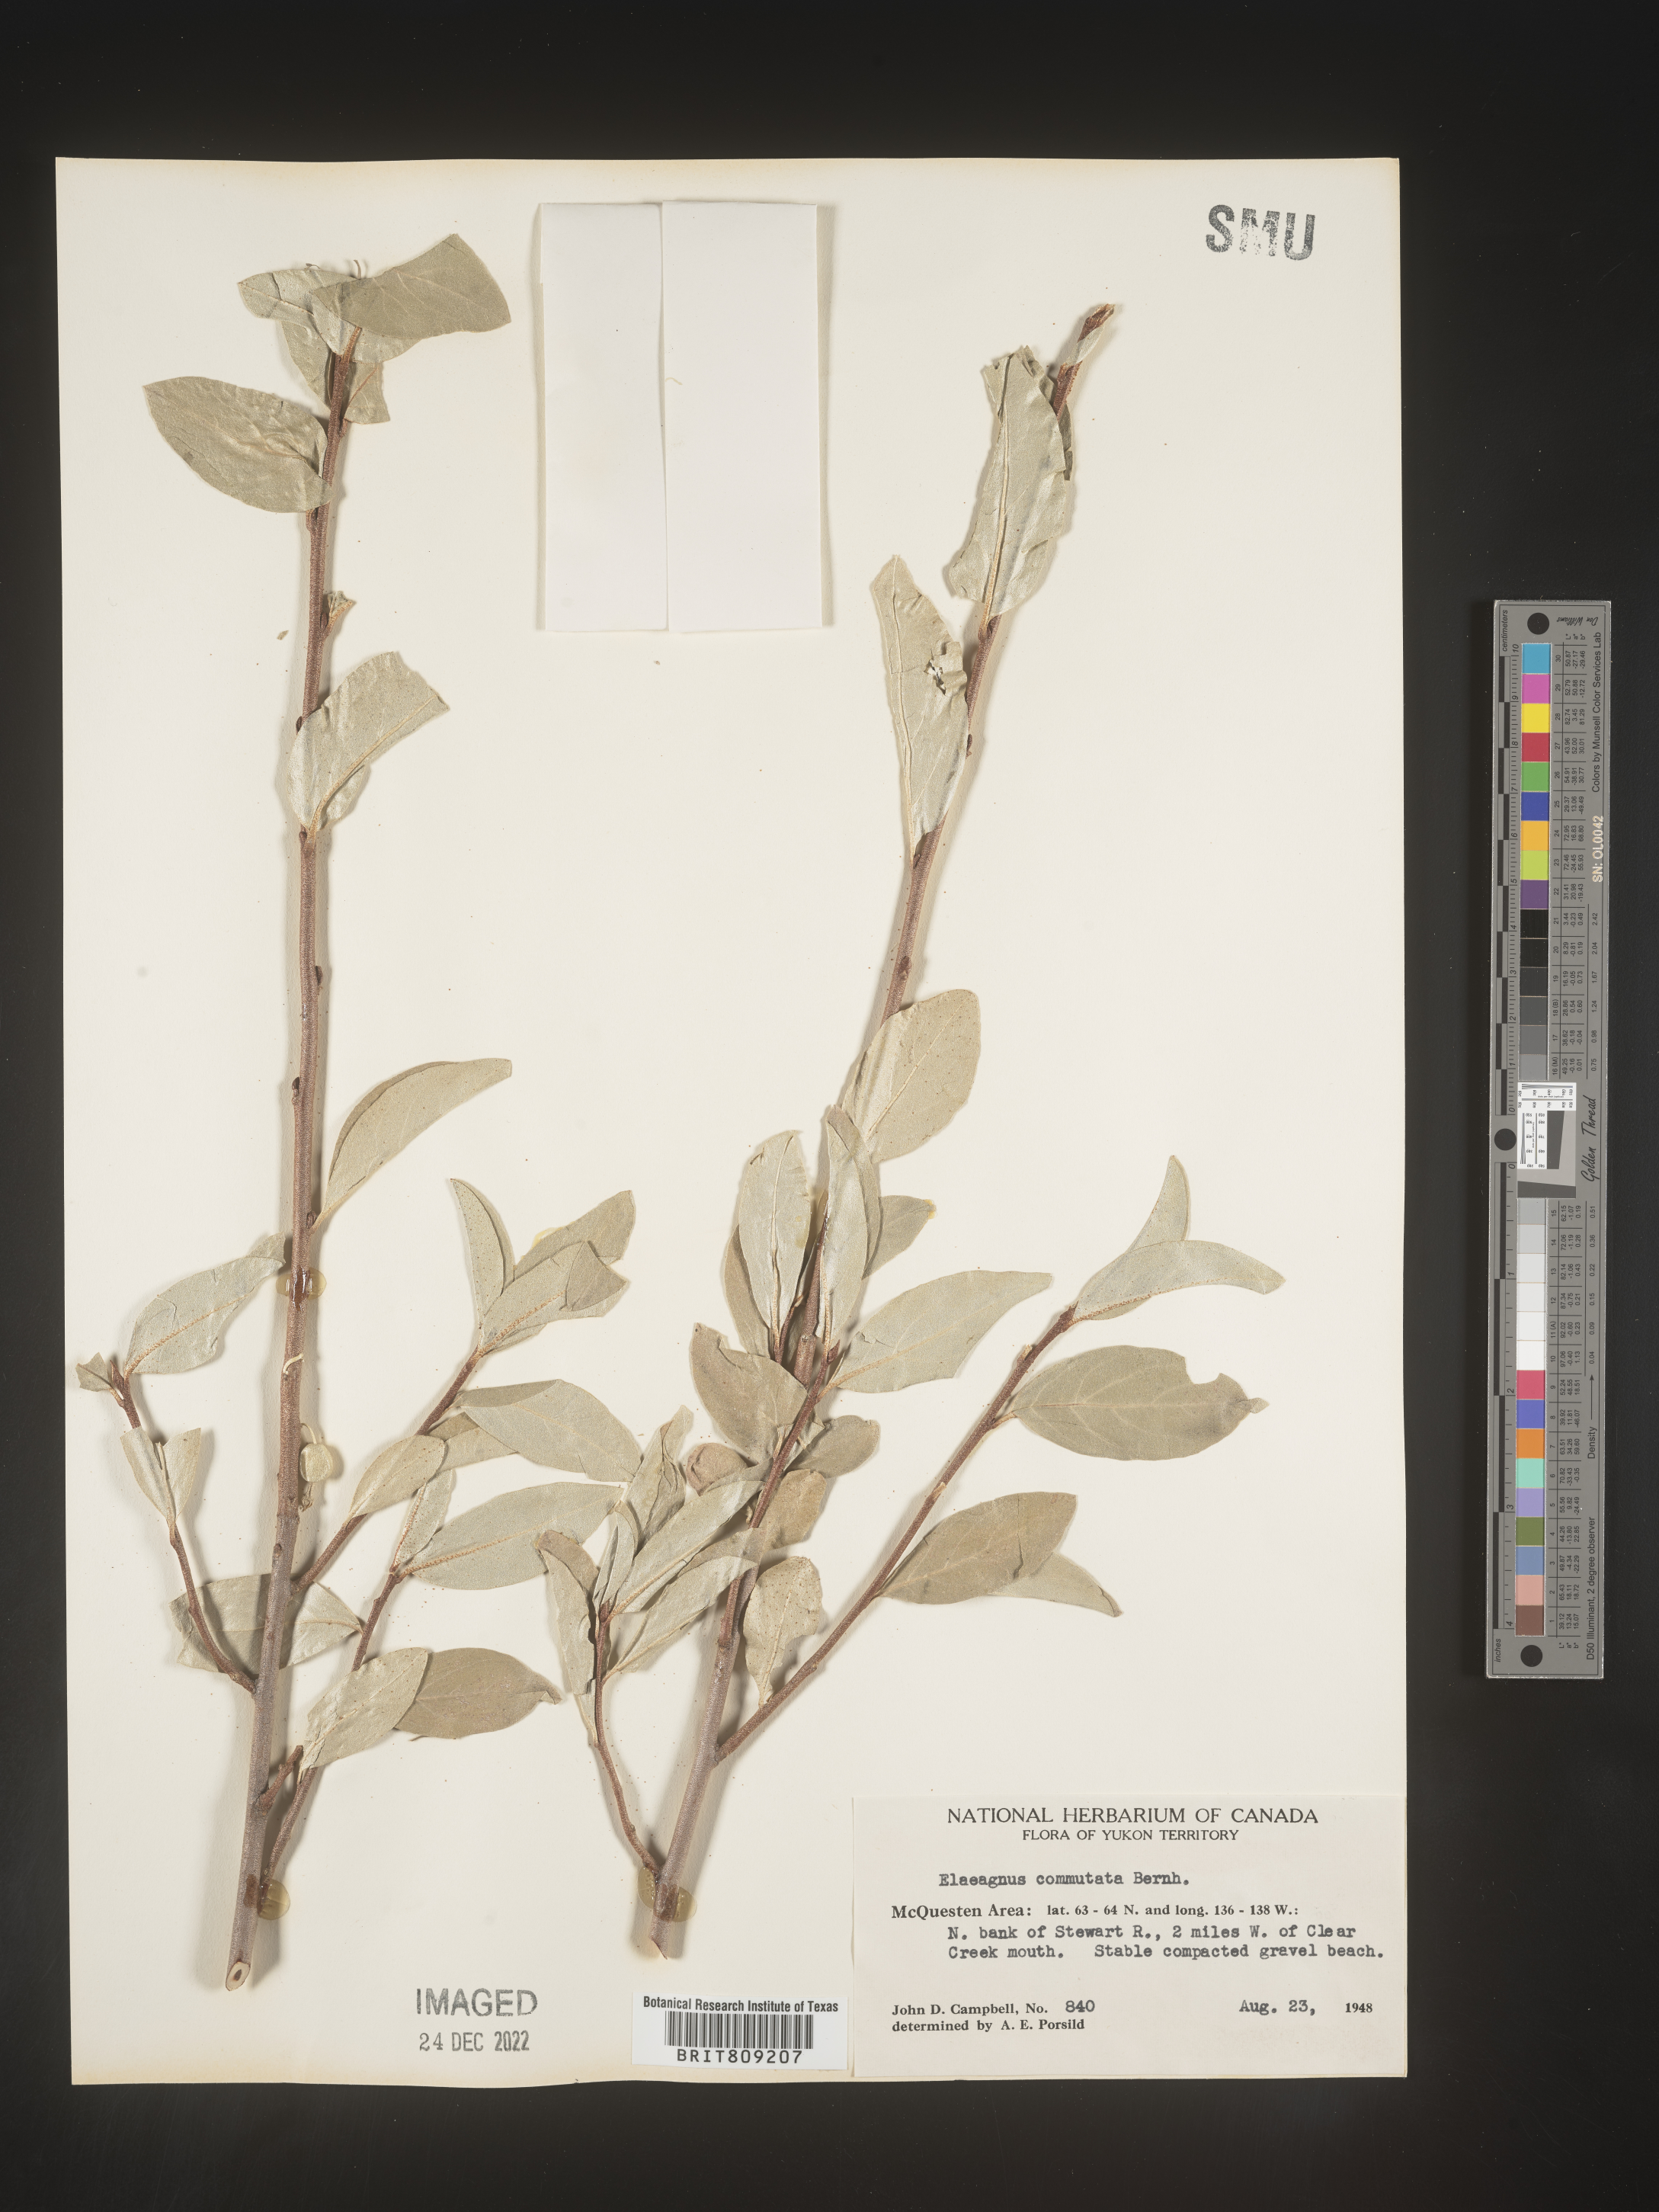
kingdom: Plantae
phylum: Tracheophyta
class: Magnoliopsida
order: Rosales
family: Elaeagnaceae
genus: Elaeagnus
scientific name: Elaeagnus
